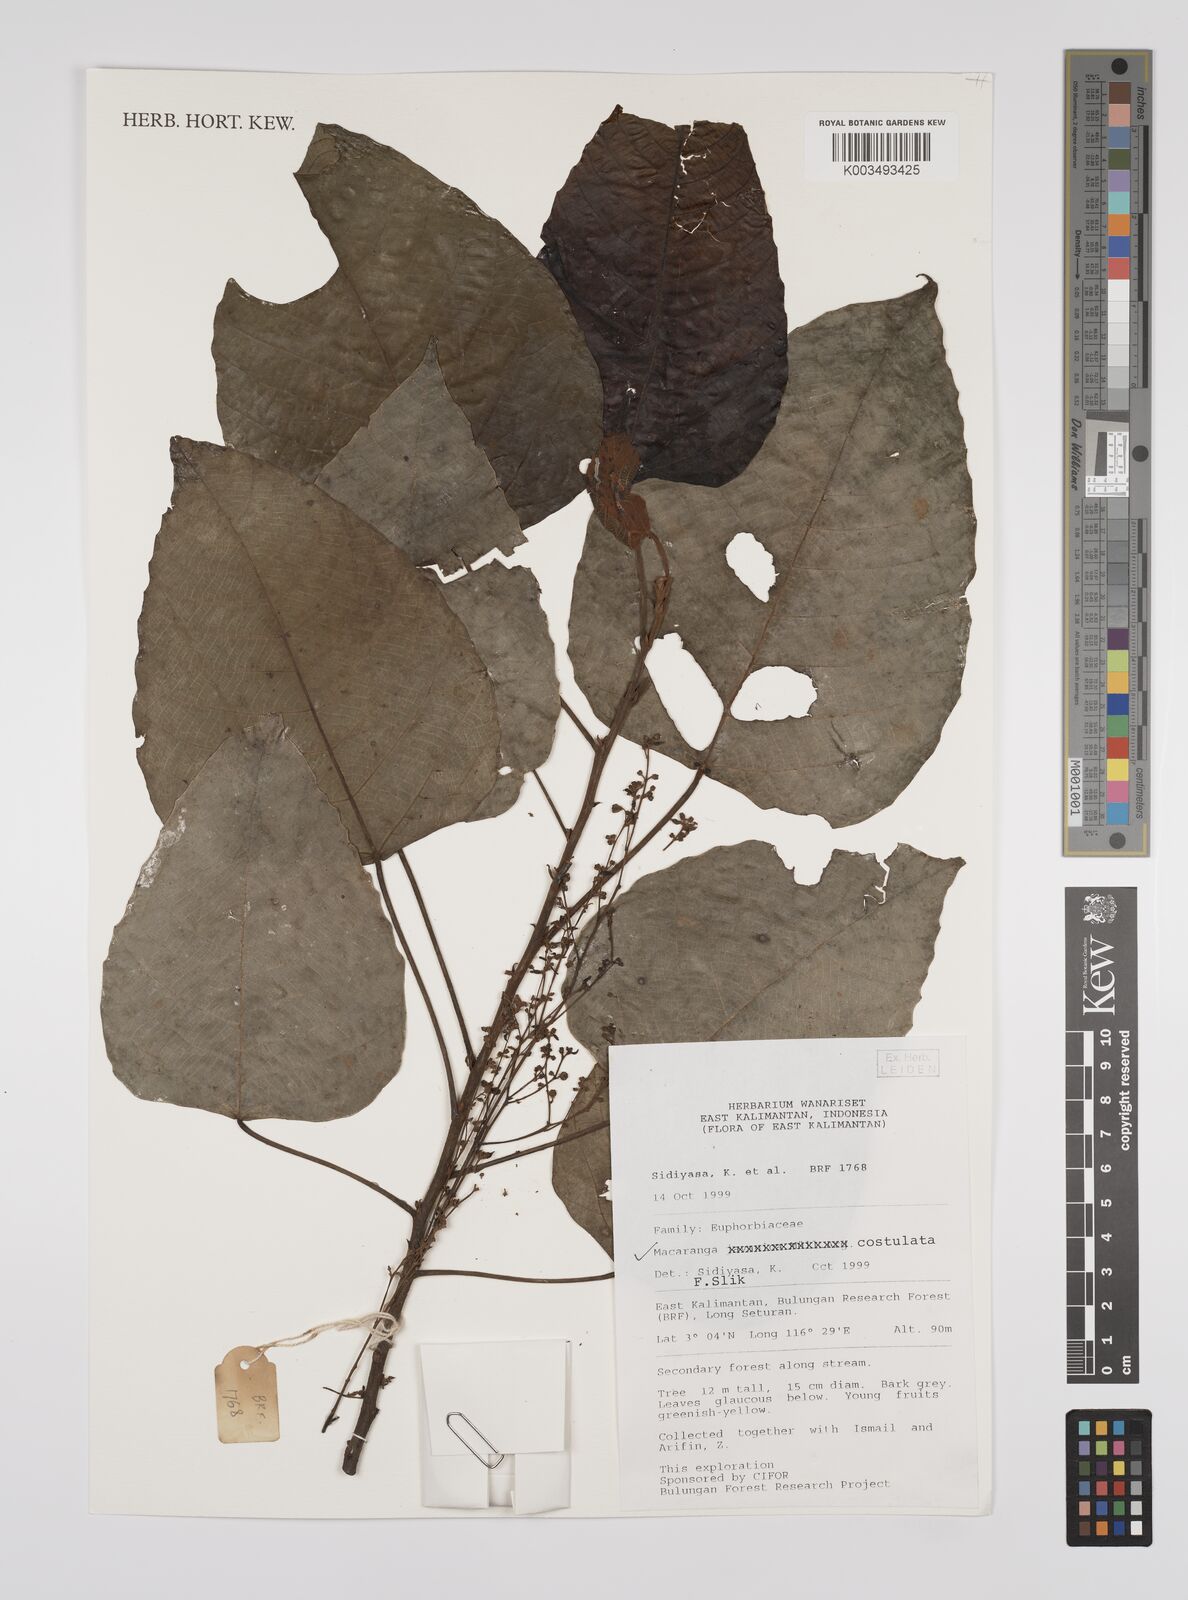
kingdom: Plantae
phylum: Tracheophyta
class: Magnoliopsida
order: Malpighiales
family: Euphorbiaceae
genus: Macaranga
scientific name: Macaranga costulata
